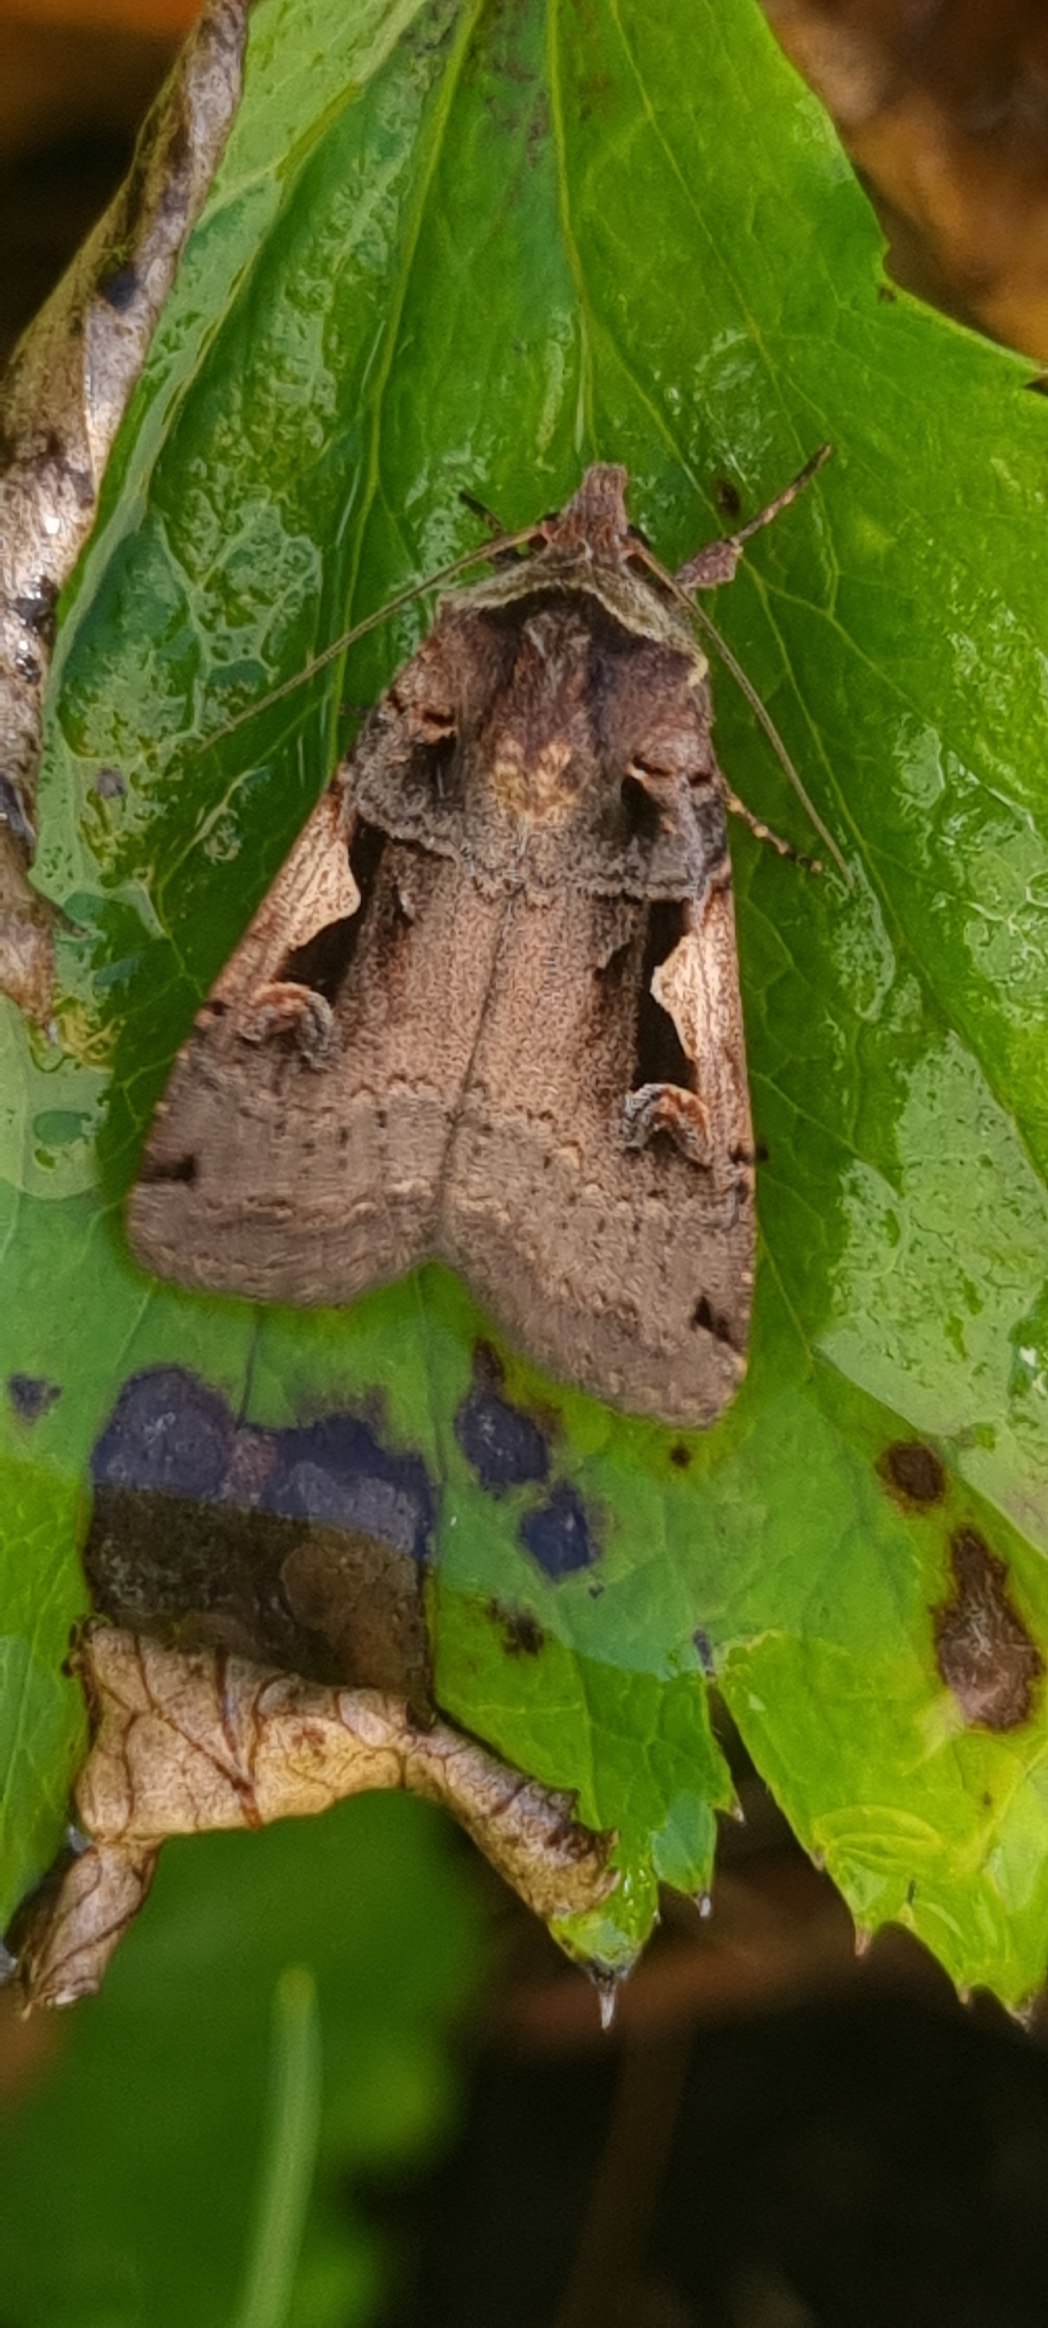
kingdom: Animalia
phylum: Arthropoda
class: Insecta
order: Lepidoptera
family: Noctuidae
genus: Xestia
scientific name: Xestia c-nigrum
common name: Det sorte c
